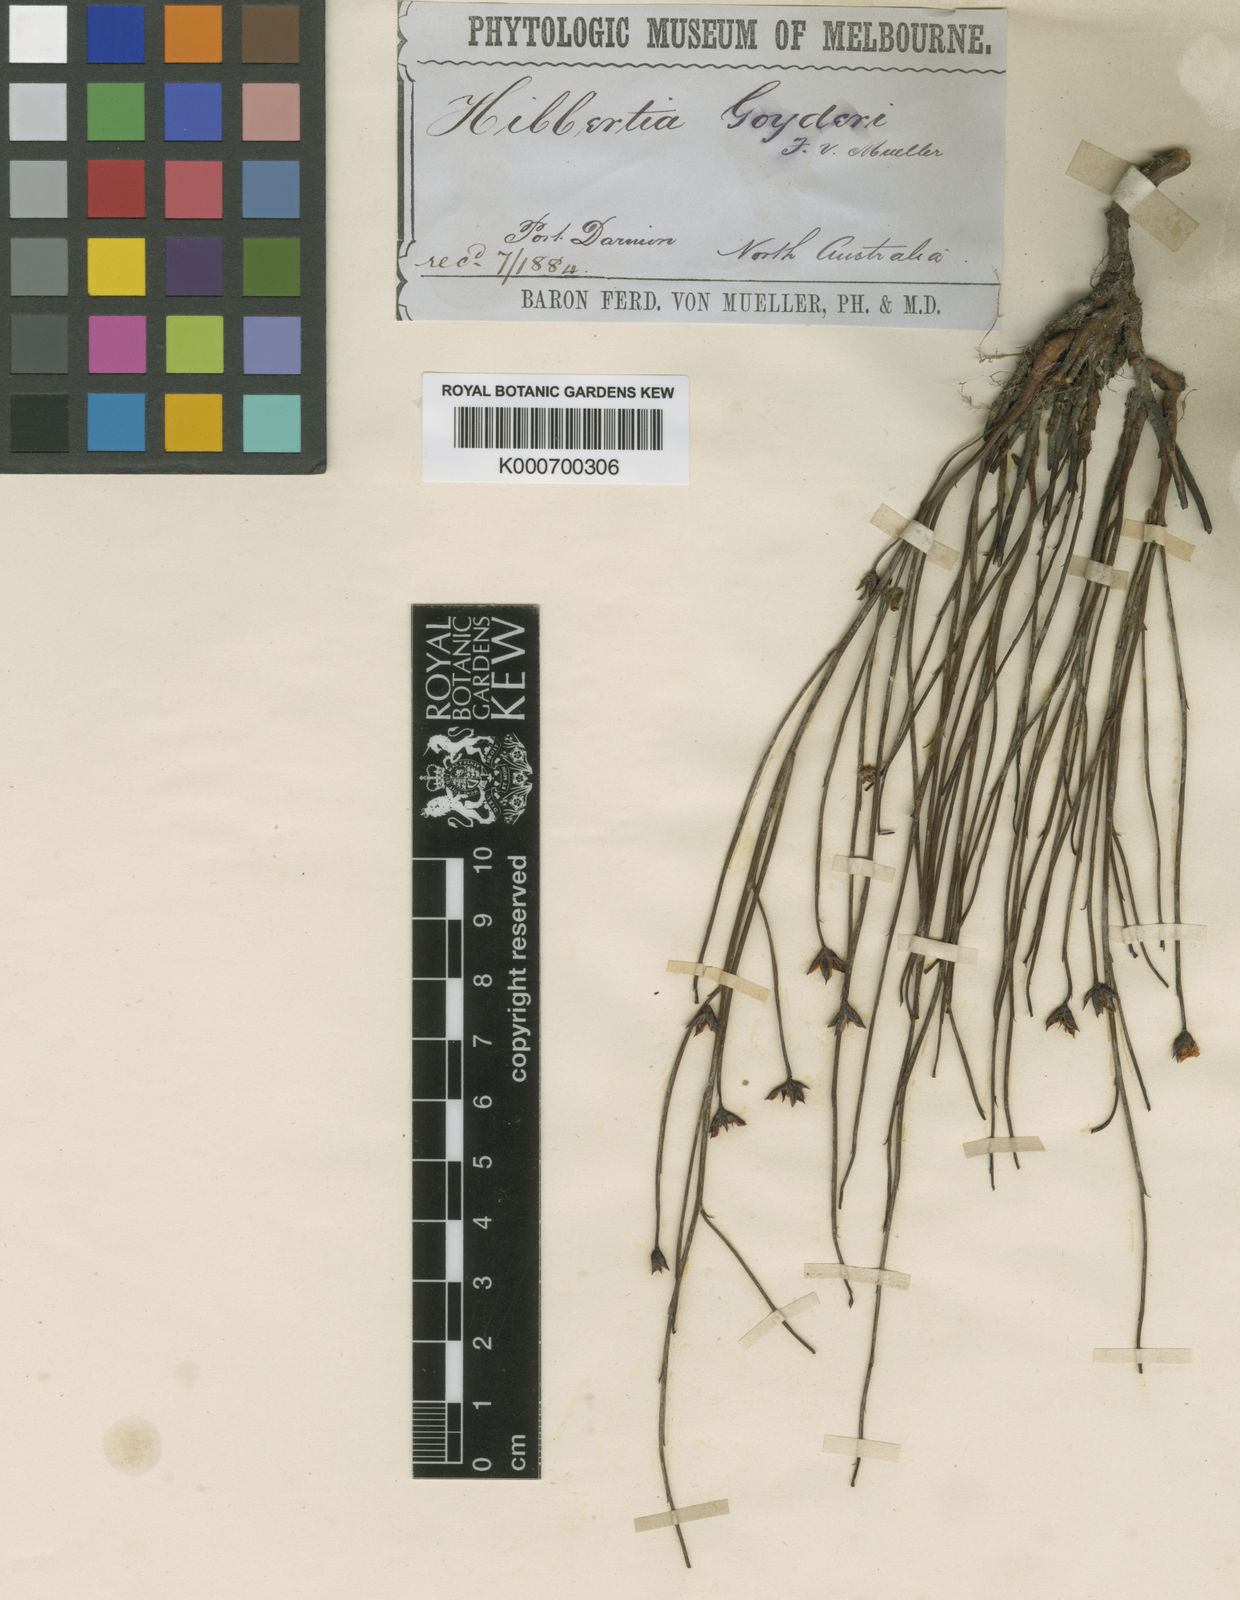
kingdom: Plantae
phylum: Tracheophyta
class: Magnoliopsida
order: Dilleniales
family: Dilleniaceae
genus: Hibbertia
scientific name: Hibbertia
